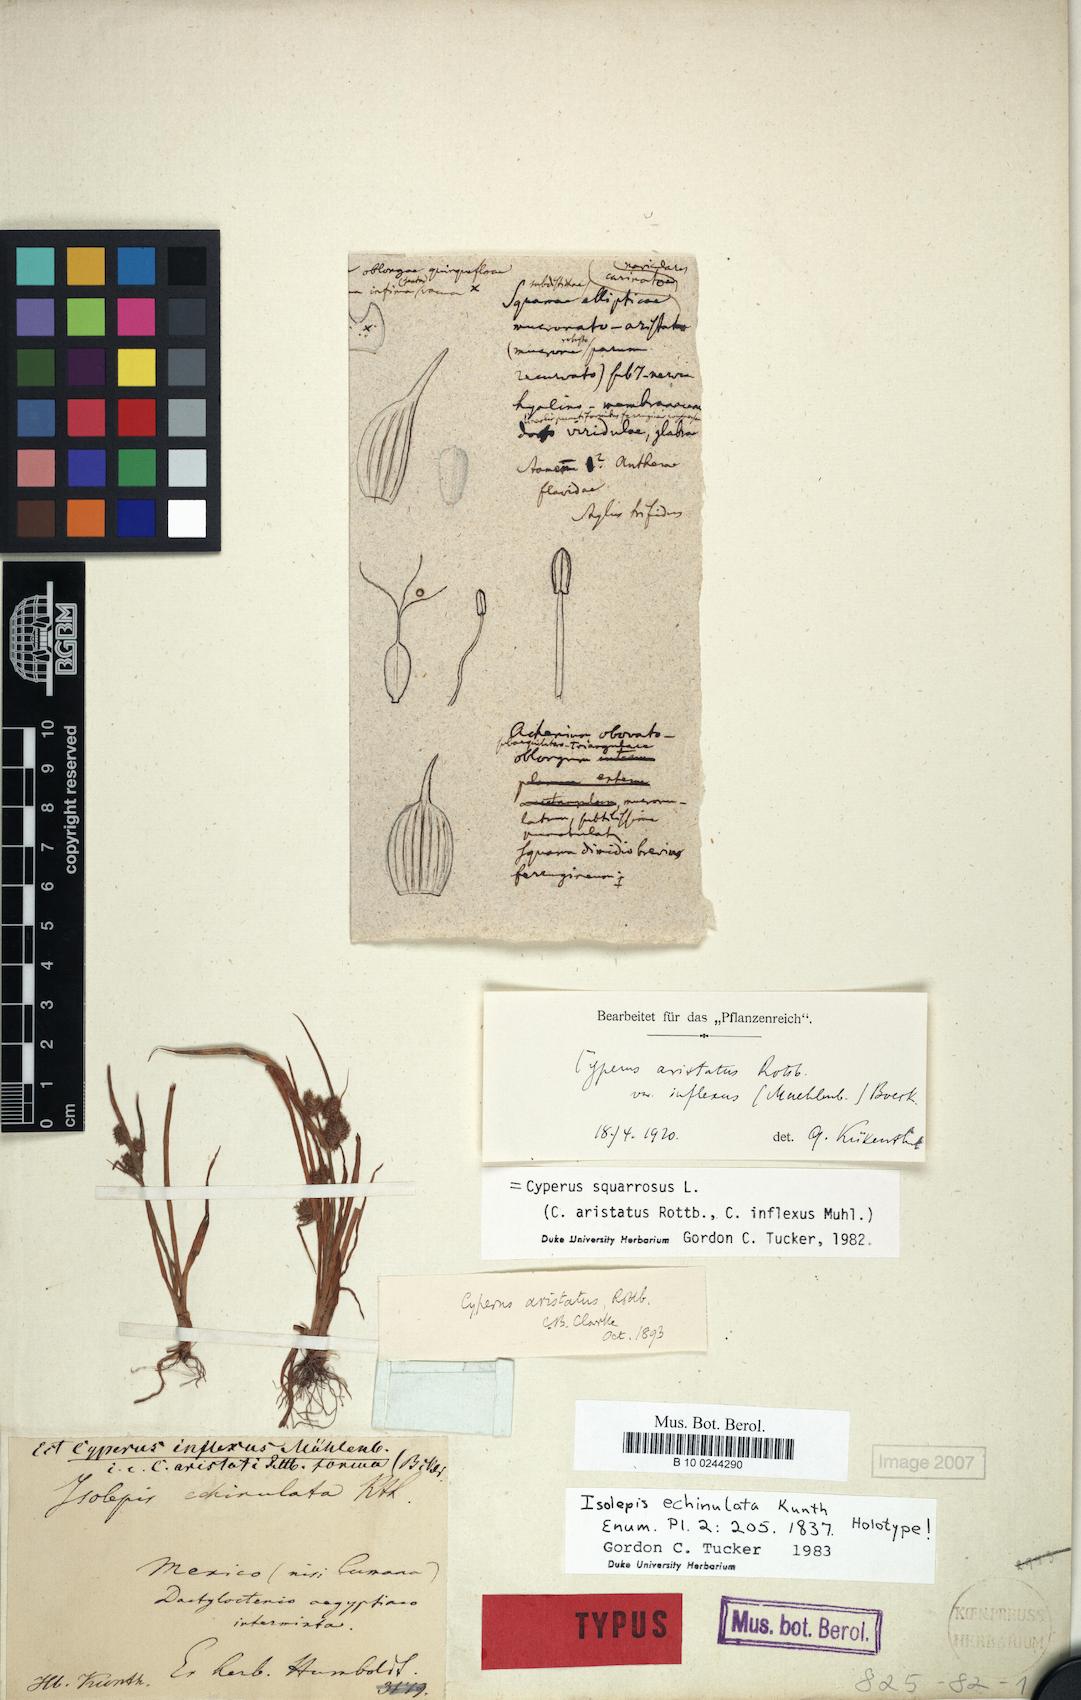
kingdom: Plantae
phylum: Tracheophyta
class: Liliopsida
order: Poales
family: Cyperaceae
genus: Cyperus
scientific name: Cyperus squarrosus
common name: Awned cyperus
